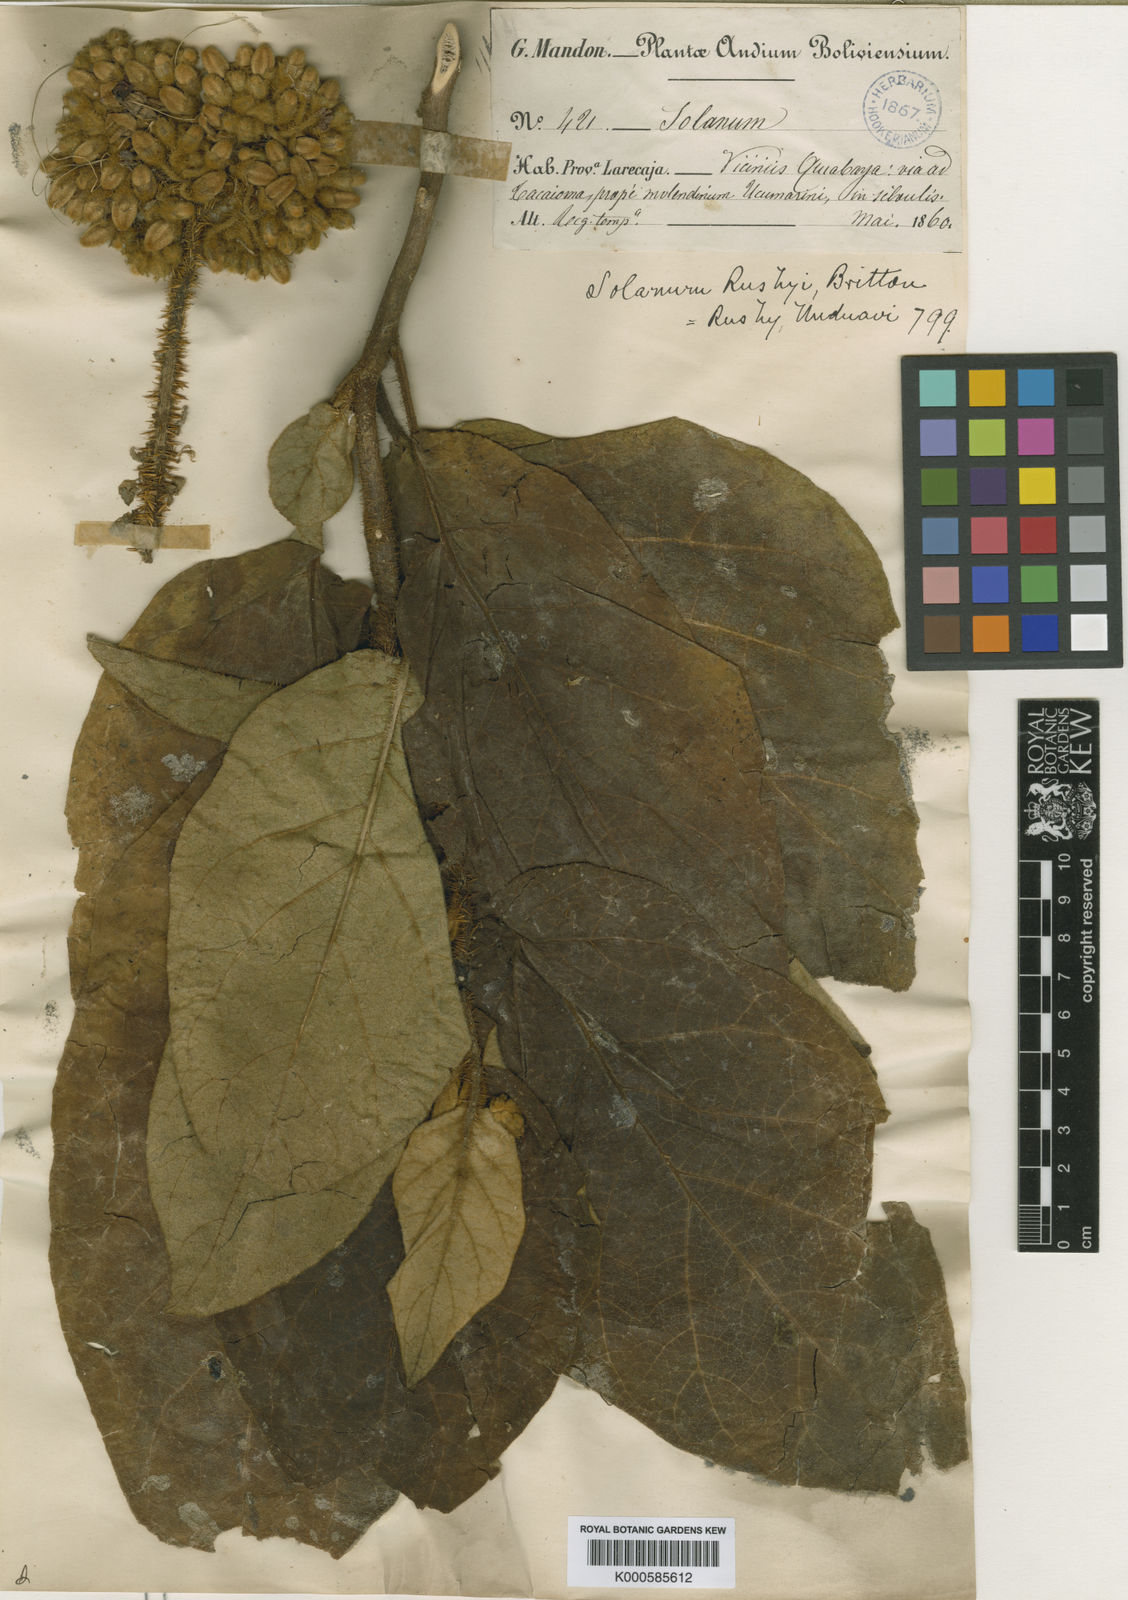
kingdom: Plantae
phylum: Tracheophyta
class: Magnoliopsida
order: Solanales
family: Solanaceae
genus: Solanum
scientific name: Solanum
